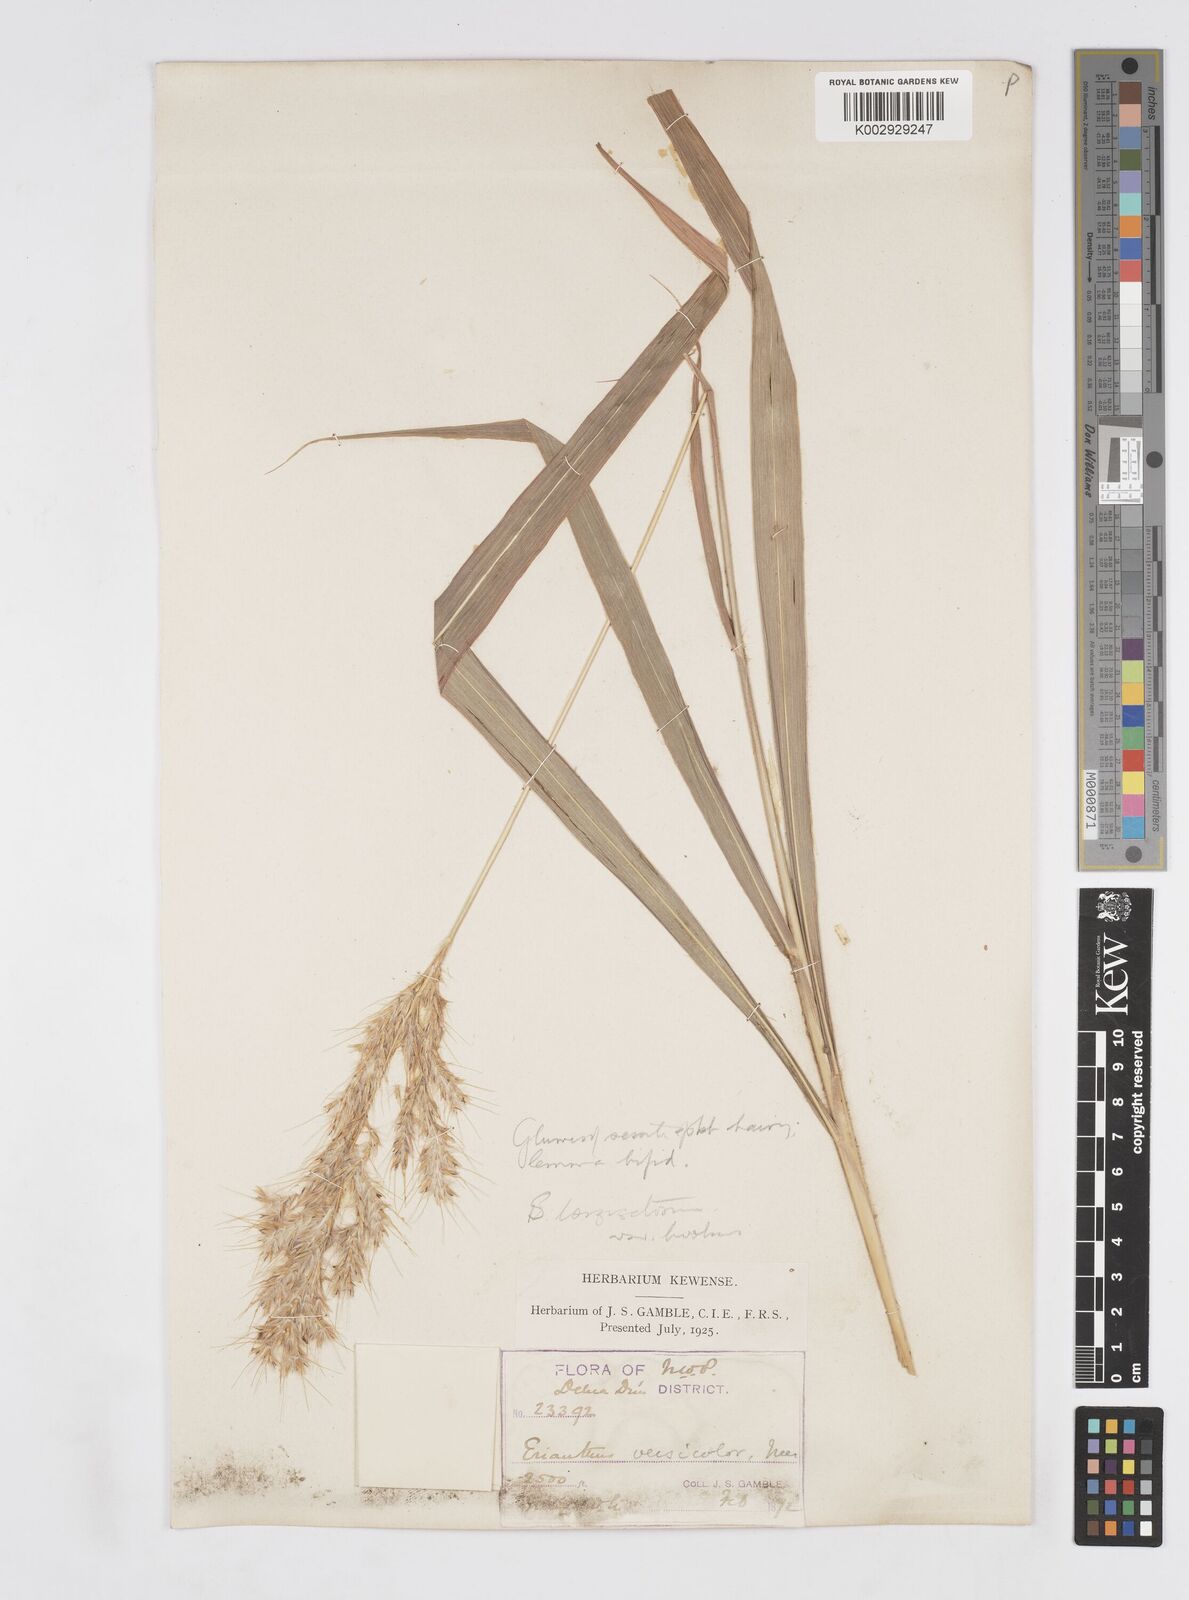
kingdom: Plantae
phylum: Tracheophyta
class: Liliopsida
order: Poales
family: Poaceae
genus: Saccharum
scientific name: Saccharum longesetosum
